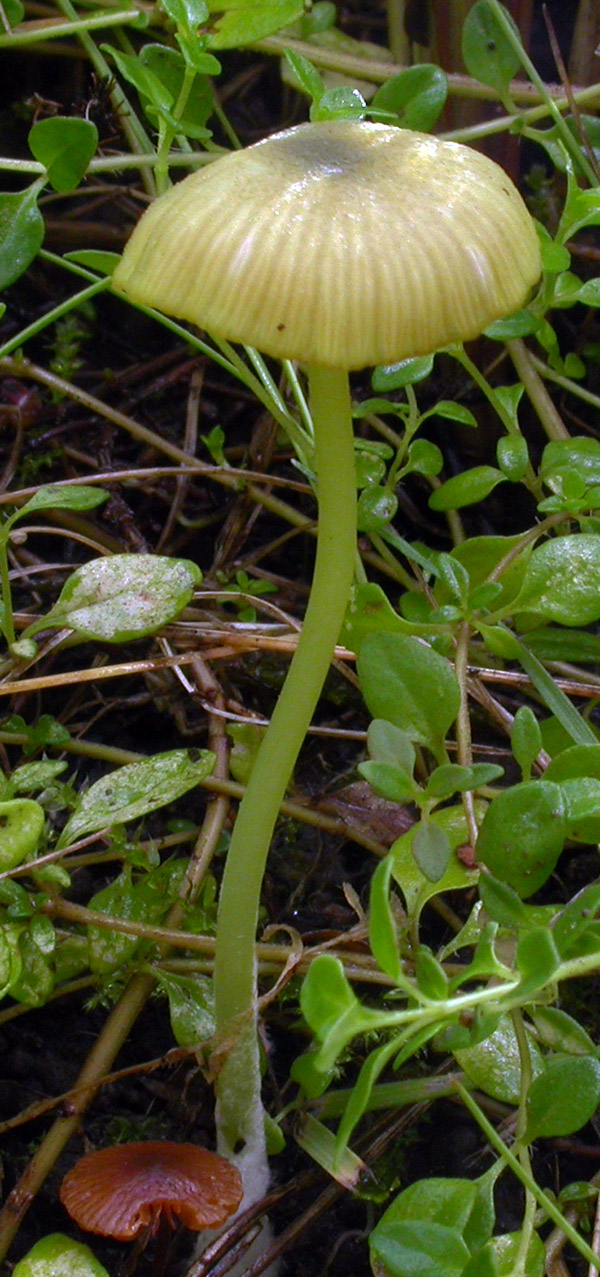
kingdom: Fungi
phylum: Basidiomycota
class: Agaricomycetes
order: Agaricales
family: Entolomataceae
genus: Entoloma
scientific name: Entoloma incanum
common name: grøngul rødblad
